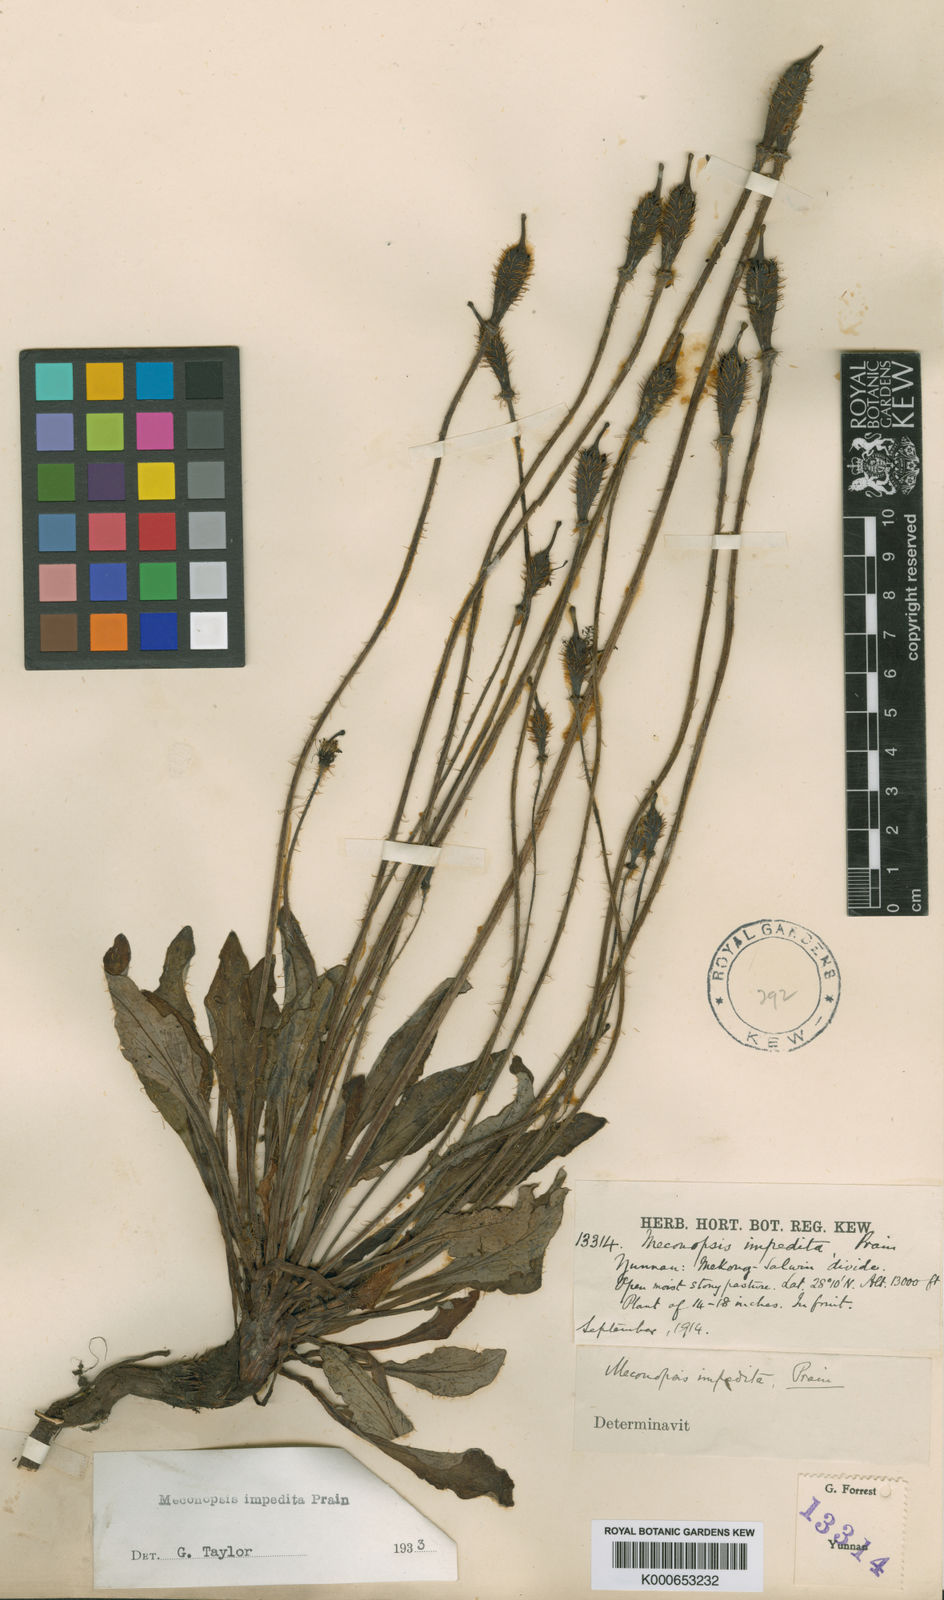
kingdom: Plantae
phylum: Tracheophyta
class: Magnoliopsida
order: Ranunculales
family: Papaveraceae
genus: Meconopsis
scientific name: Meconopsis impedita
